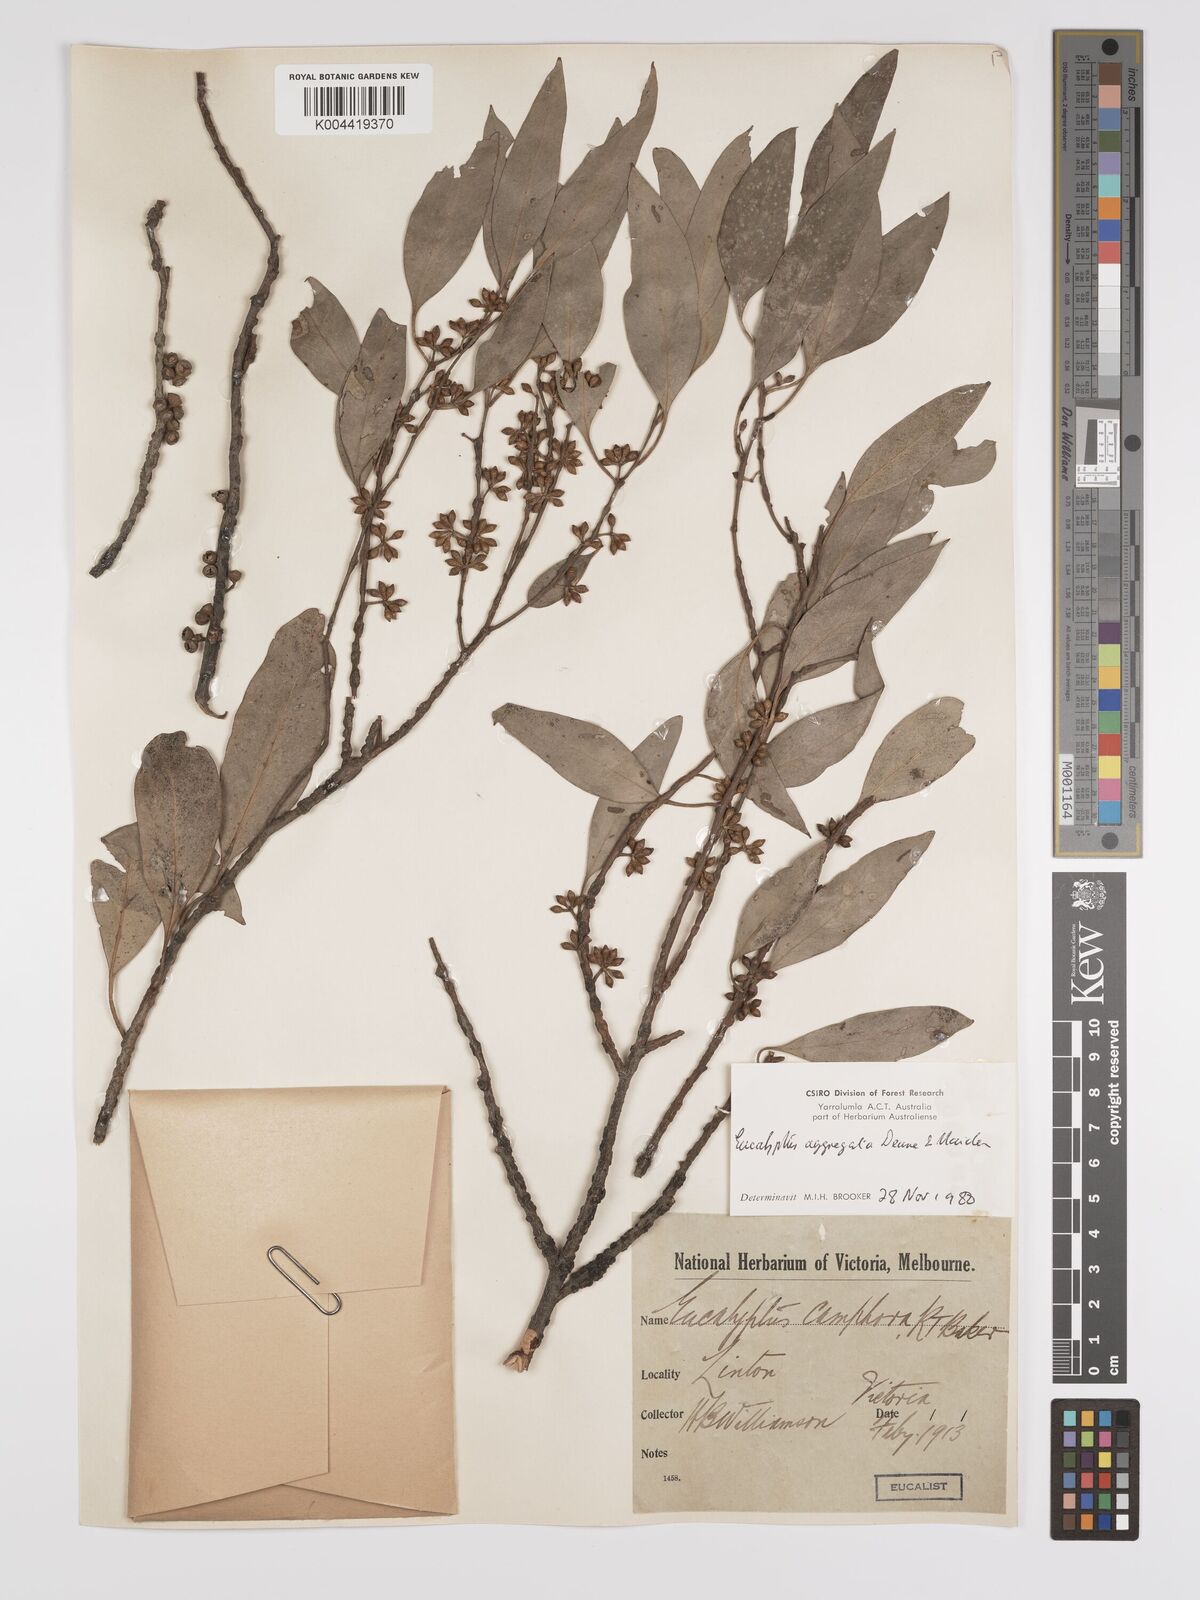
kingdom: Plantae
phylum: Tracheophyta
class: Magnoliopsida
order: Myrtales
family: Myrtaceae
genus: Eucalyptus
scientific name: Eucalyptus aggregata
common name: Black gum
